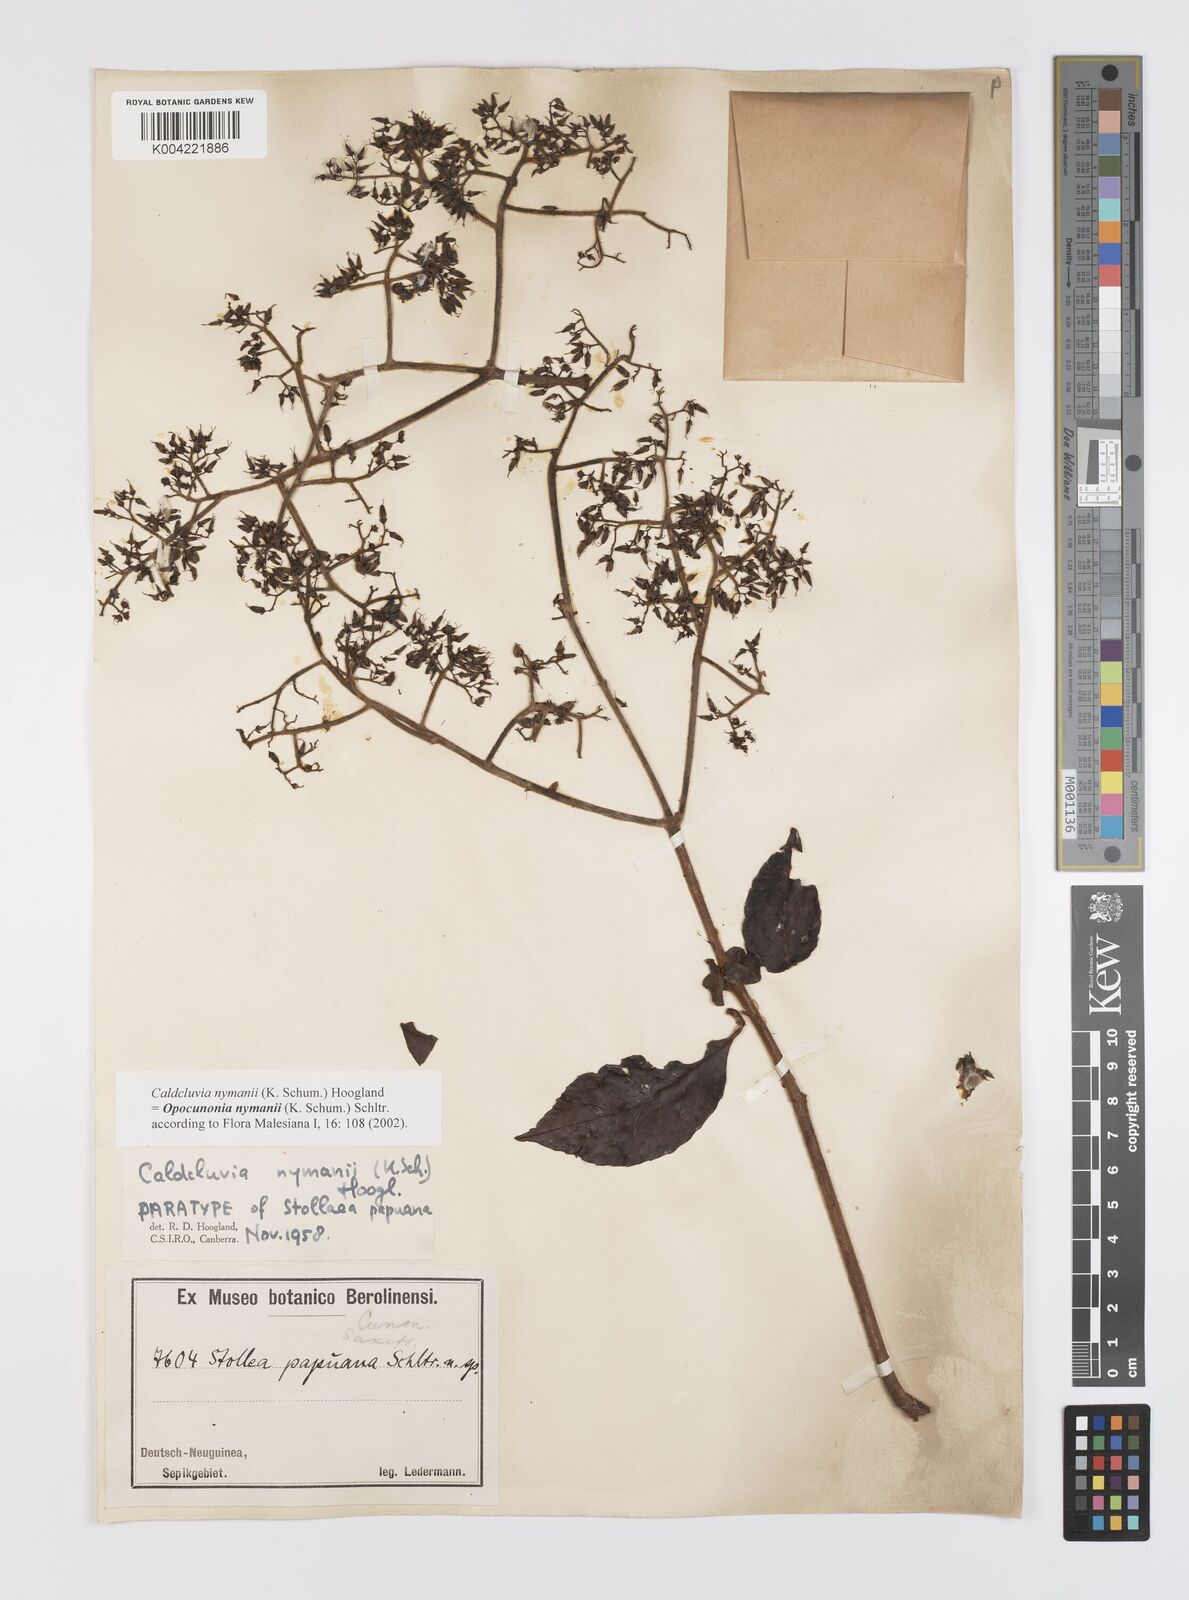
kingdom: Plantae
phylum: Tracheophyta
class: Magnoliopsida
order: Oxalidales
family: Cunoniaceae
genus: Opocunonia
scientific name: Opocunonia nymanii
